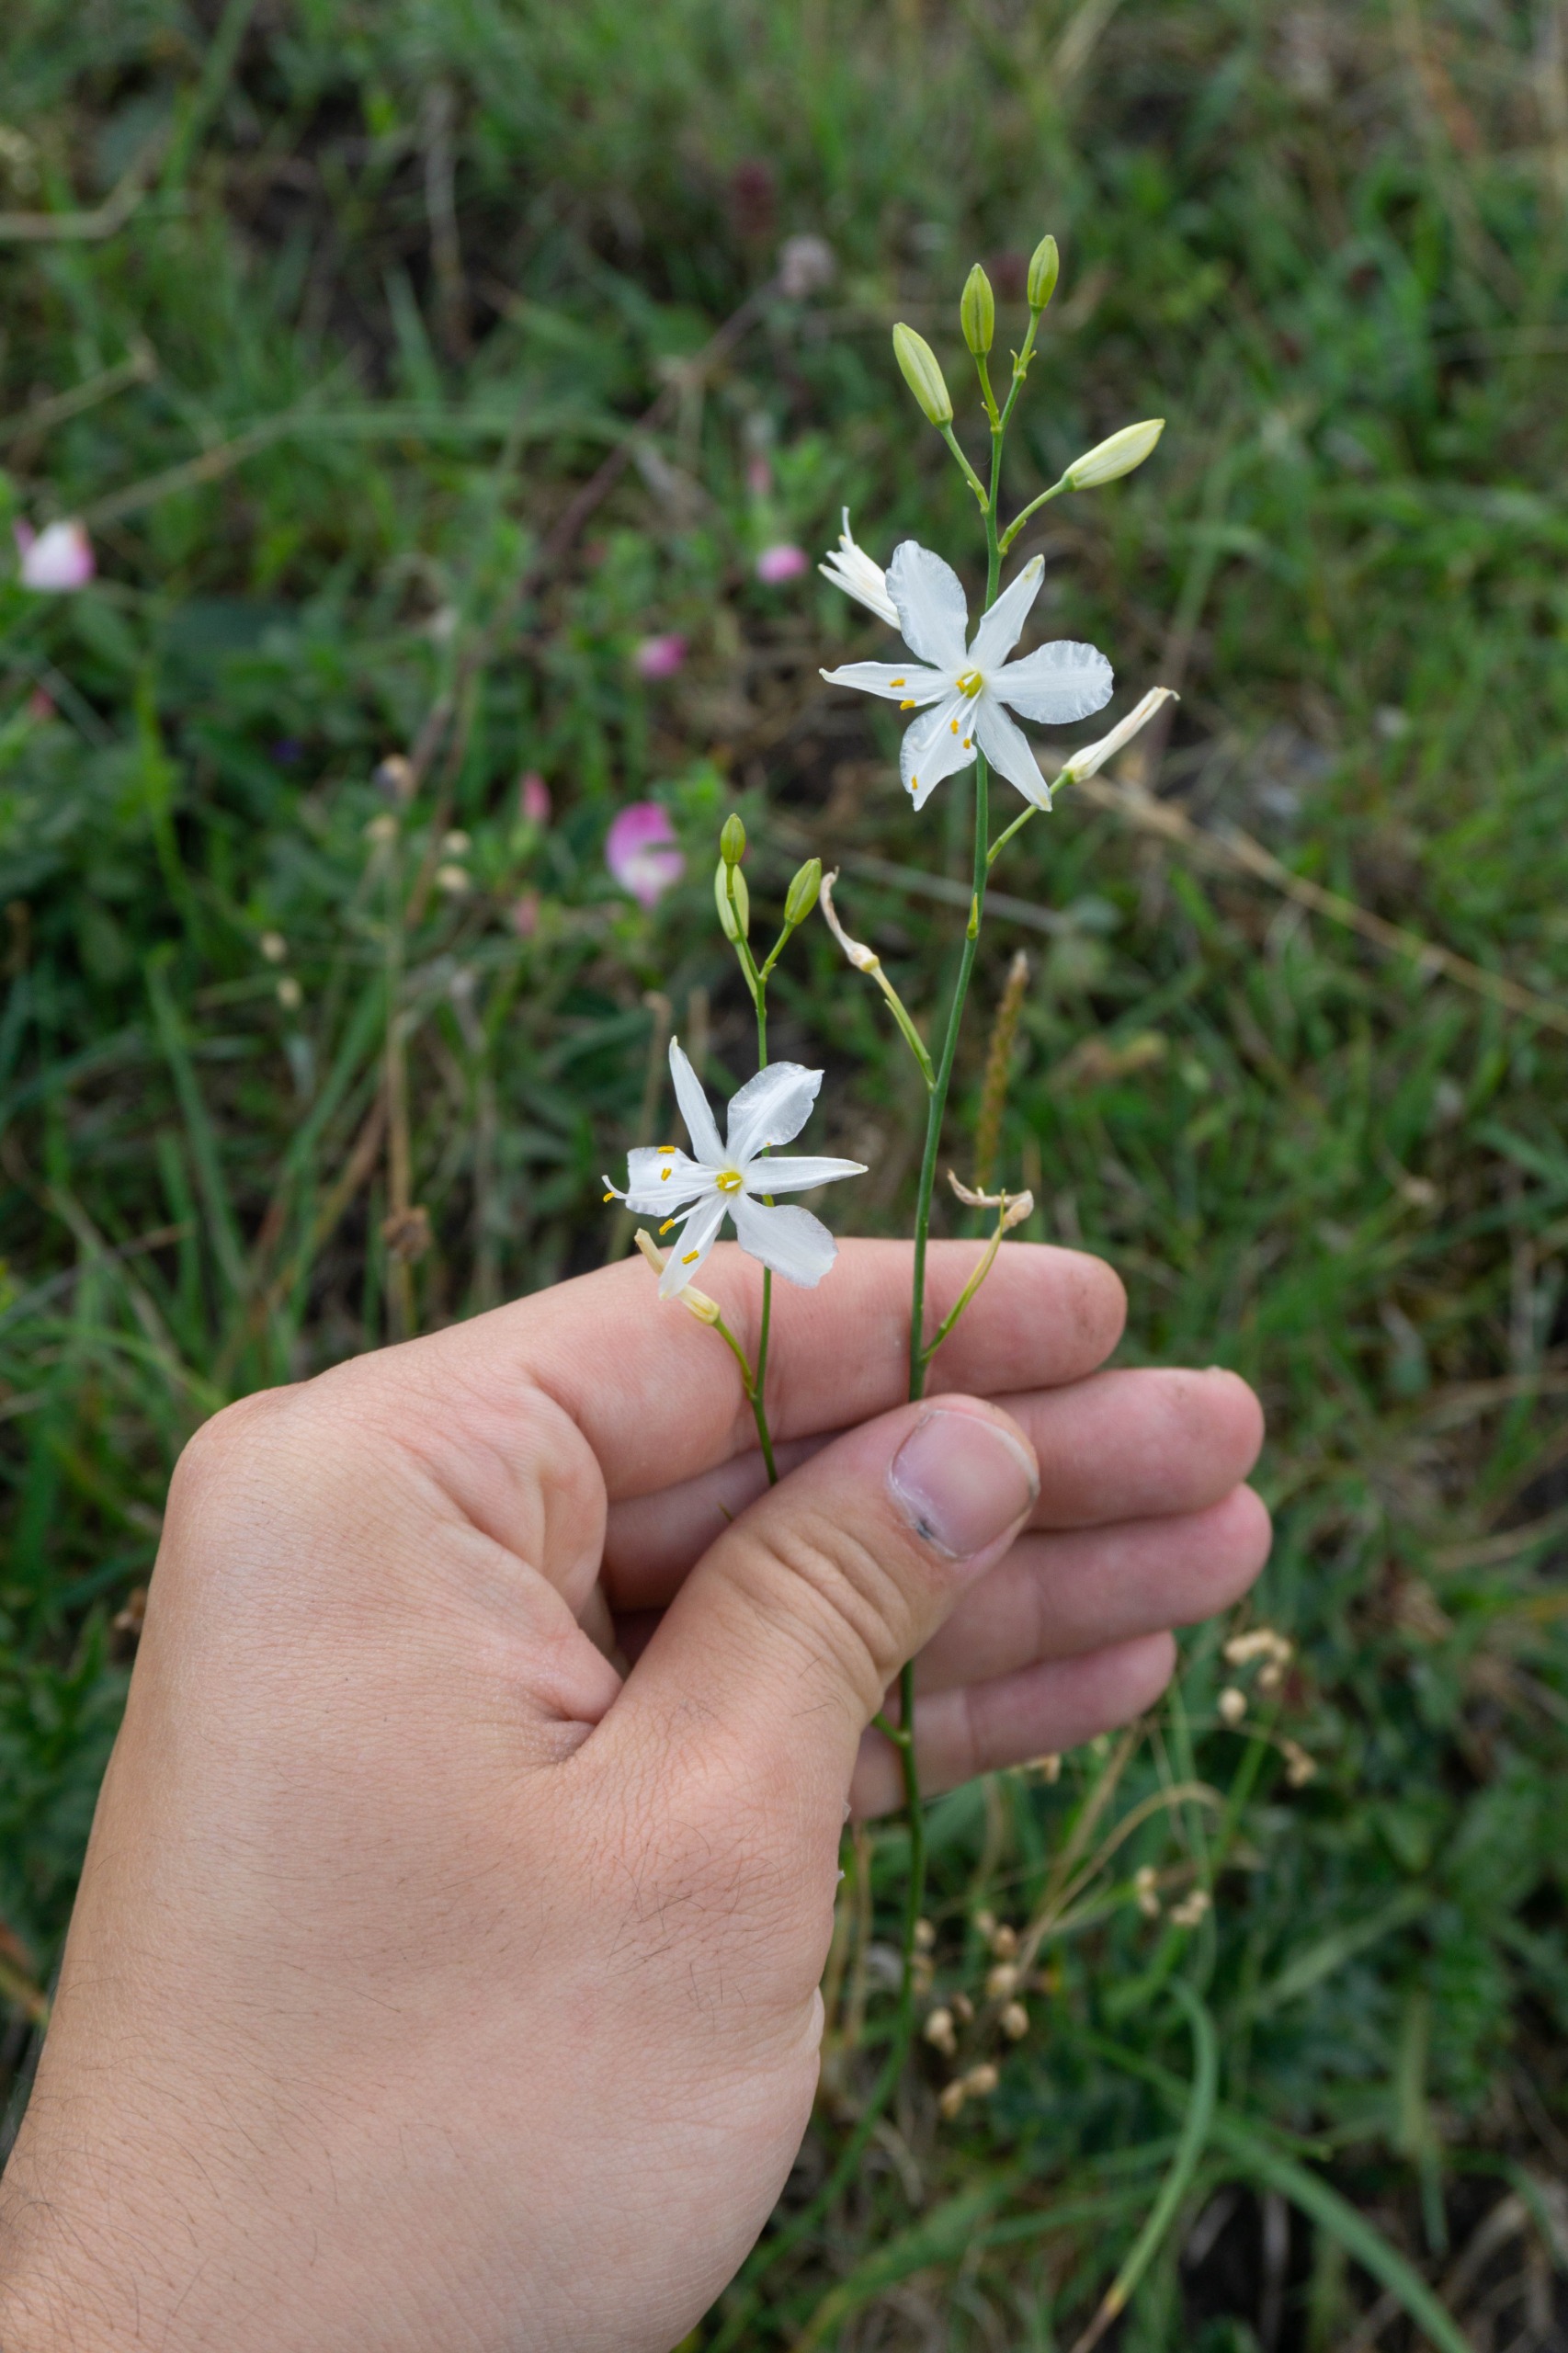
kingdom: Plantae
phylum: Tracheophyta
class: Liliopsida
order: Asparagales
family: Asparagaceae
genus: Anthericum
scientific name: Anthericum ramosum
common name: Grenet edderkopurt
